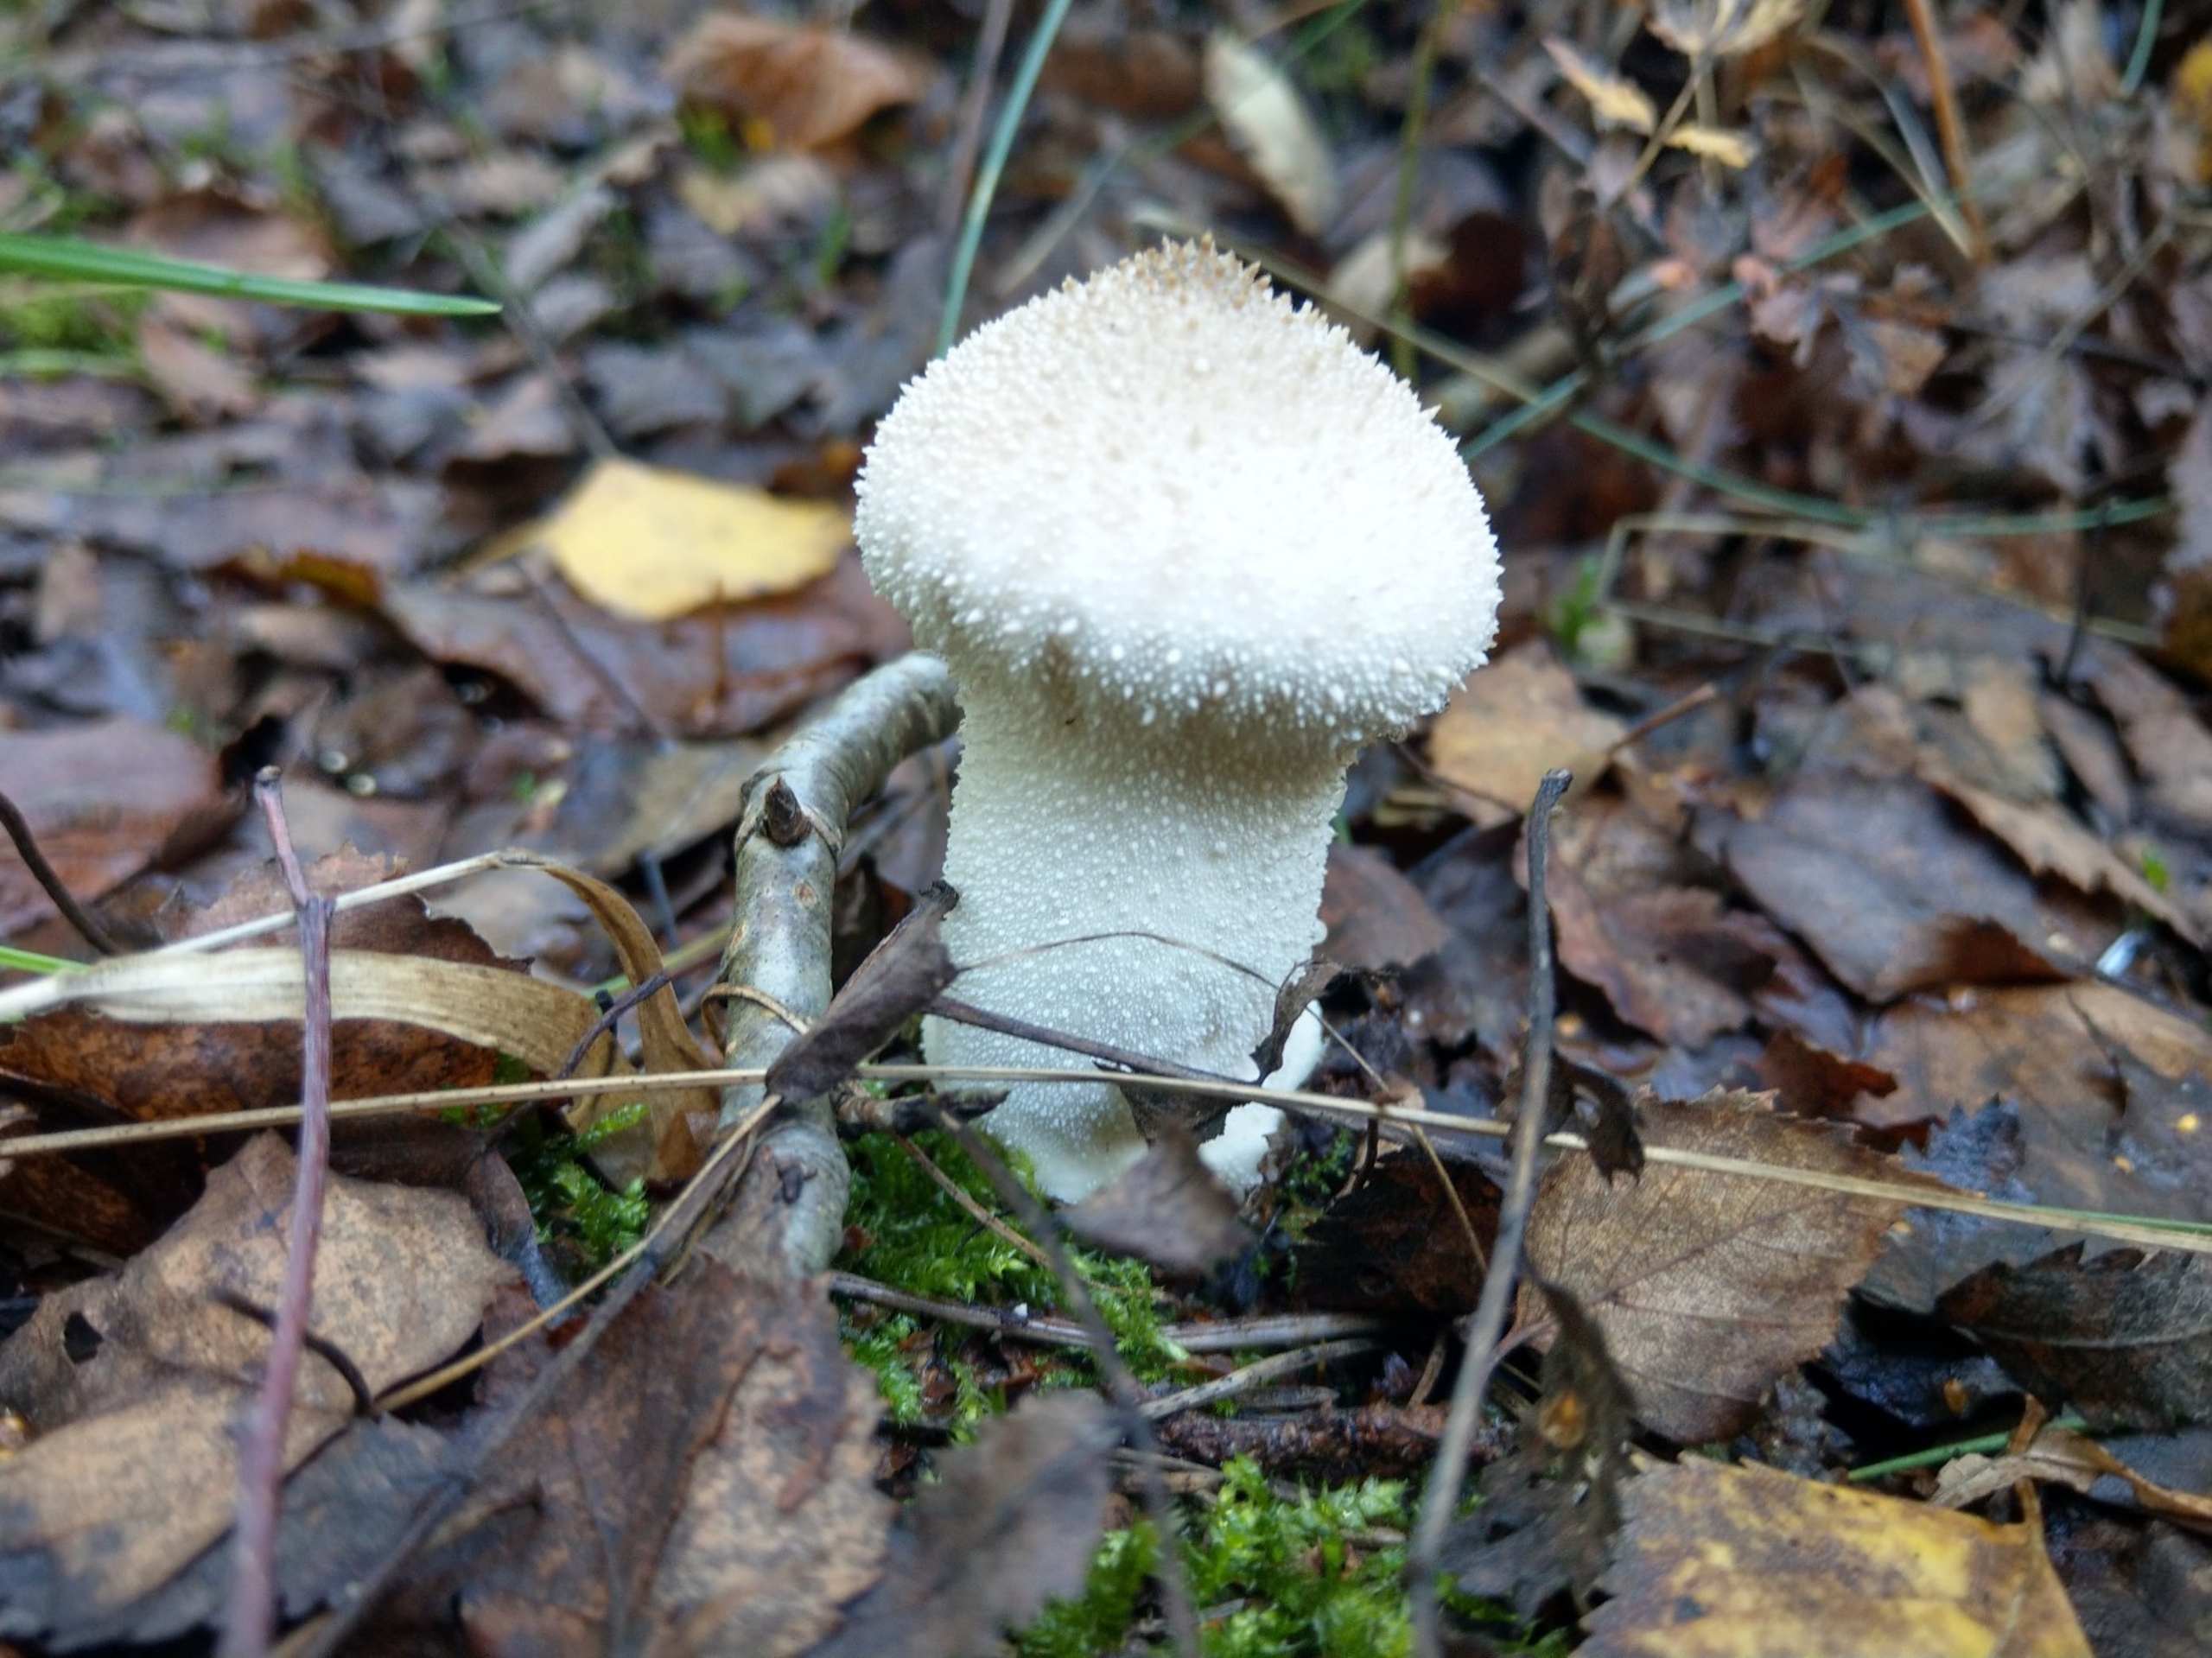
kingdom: Fungi
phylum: Basidiomycota
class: Agaricomycetes
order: Agaricales
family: Lycoperdaceae
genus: Lycoperdon
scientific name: Lycoperdon perlatum
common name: Krystal-støvbold
